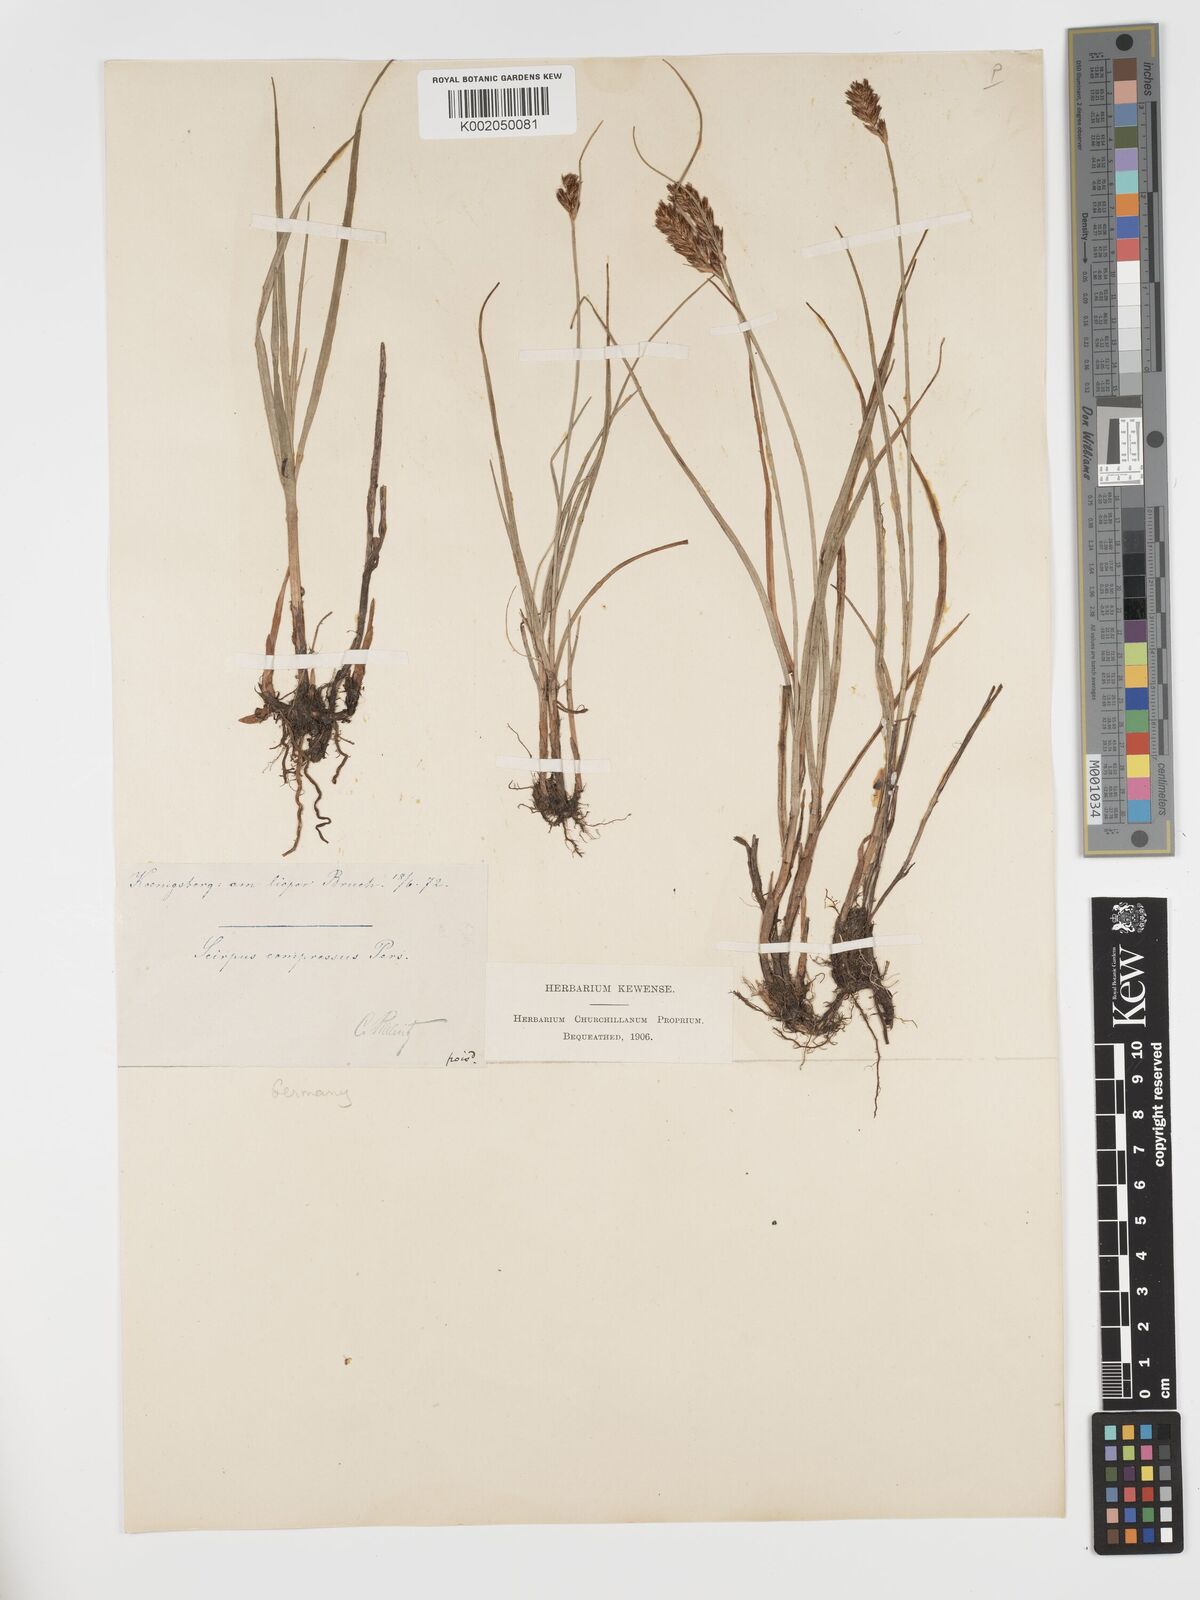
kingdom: Plantae
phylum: Tracheophyta
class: Liliopsida
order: Poales
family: Cyperaceae
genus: Blysmus
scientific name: Blysmus compressus
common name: Flat-sedge
